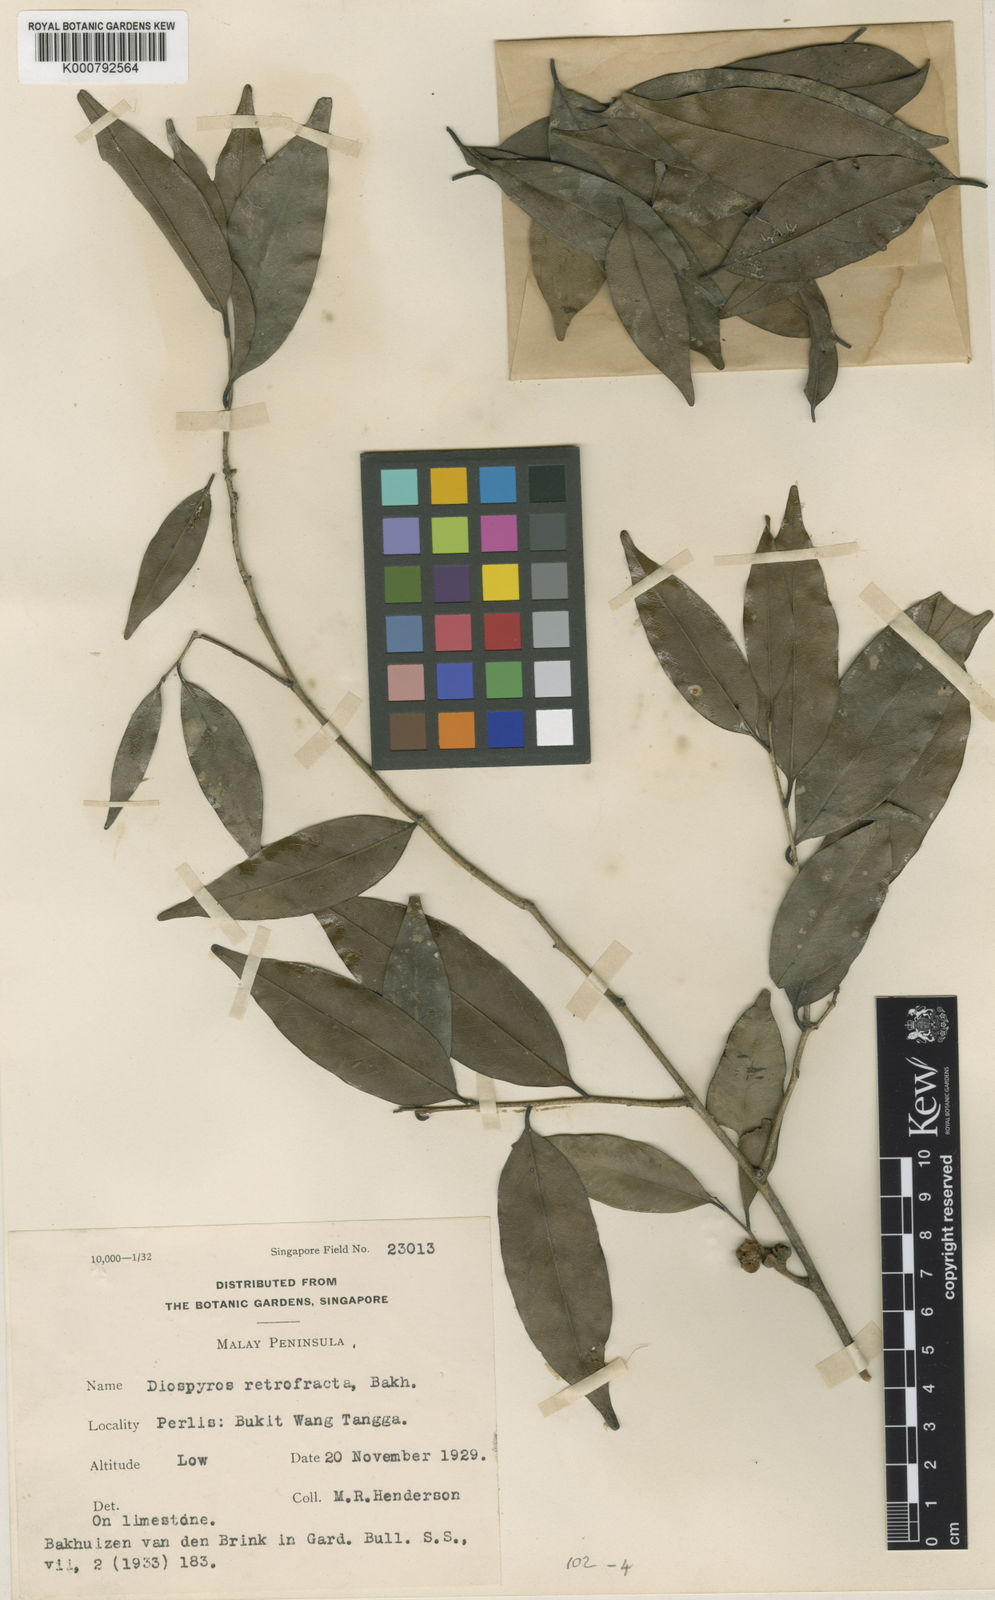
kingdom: Plantae
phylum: Tracheophyta
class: Magnoliopsida
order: Ericales
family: Ebenaceae
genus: Diospyros
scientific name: Diospyros bejaudii
